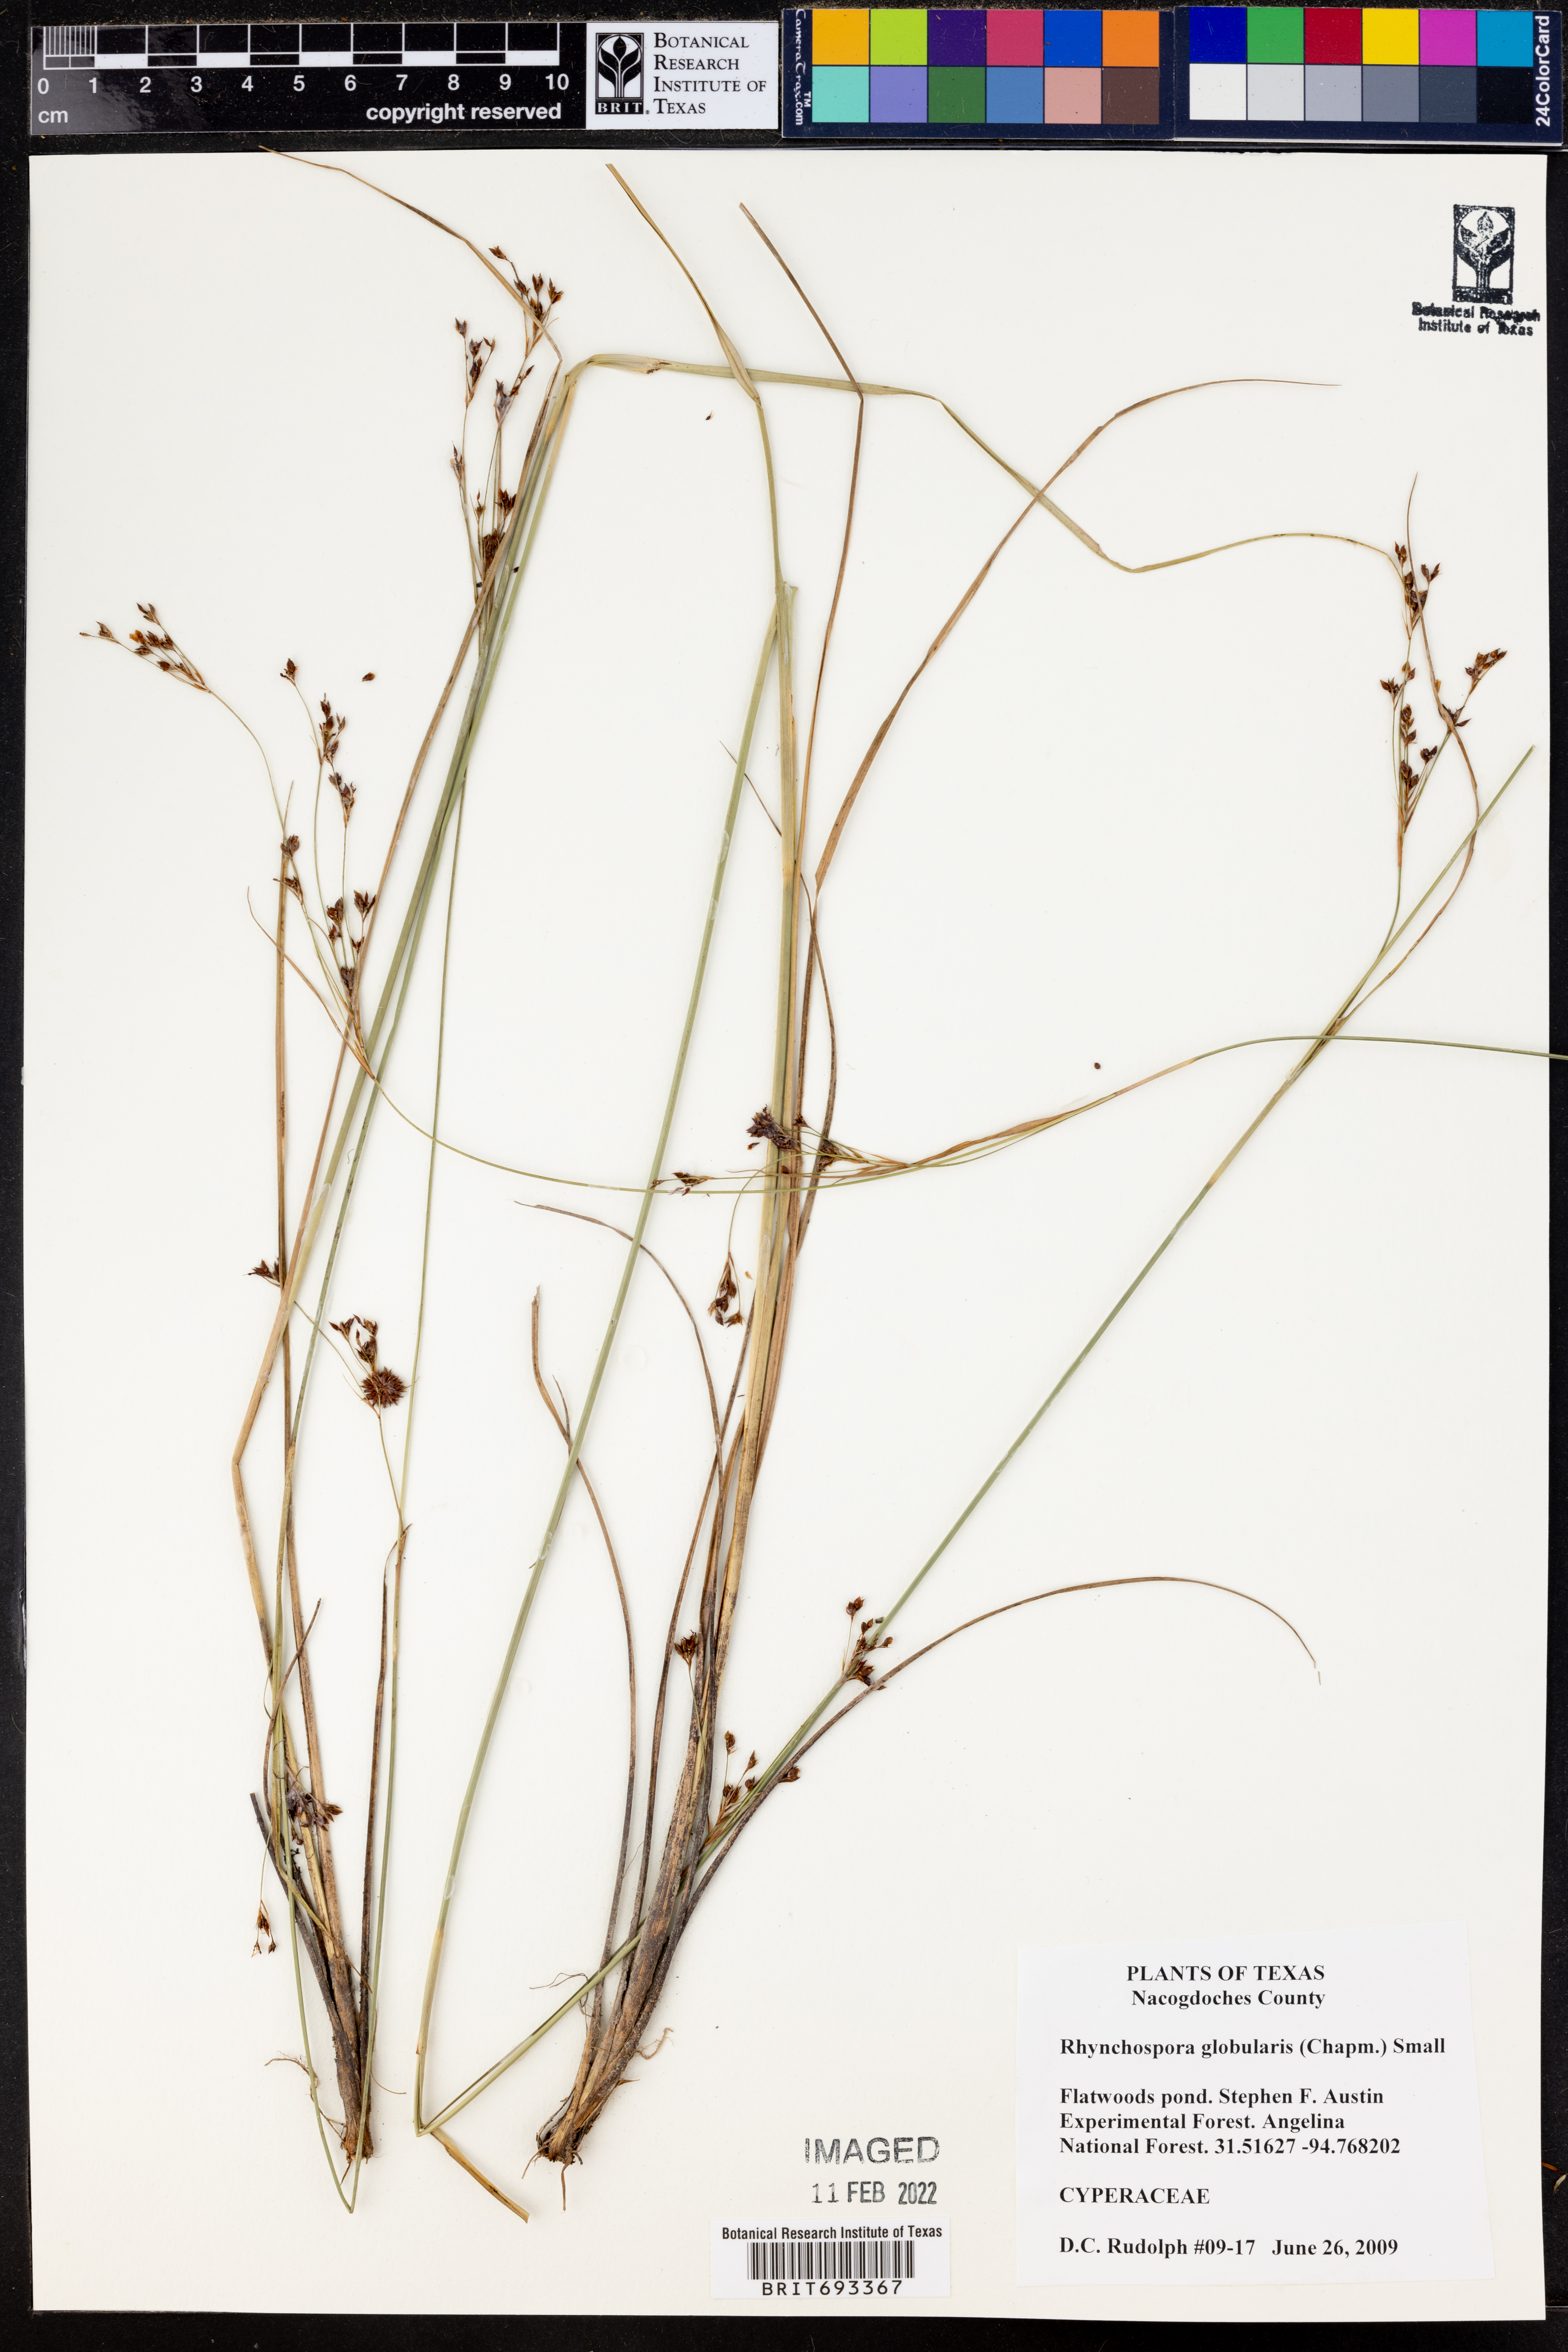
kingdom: Plantae
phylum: Tracheophyta
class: Liliopsida
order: Poales
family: Cyperaceae
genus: Rhynchospora
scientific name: Rhynchospora globularis
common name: Globe beaksedge
